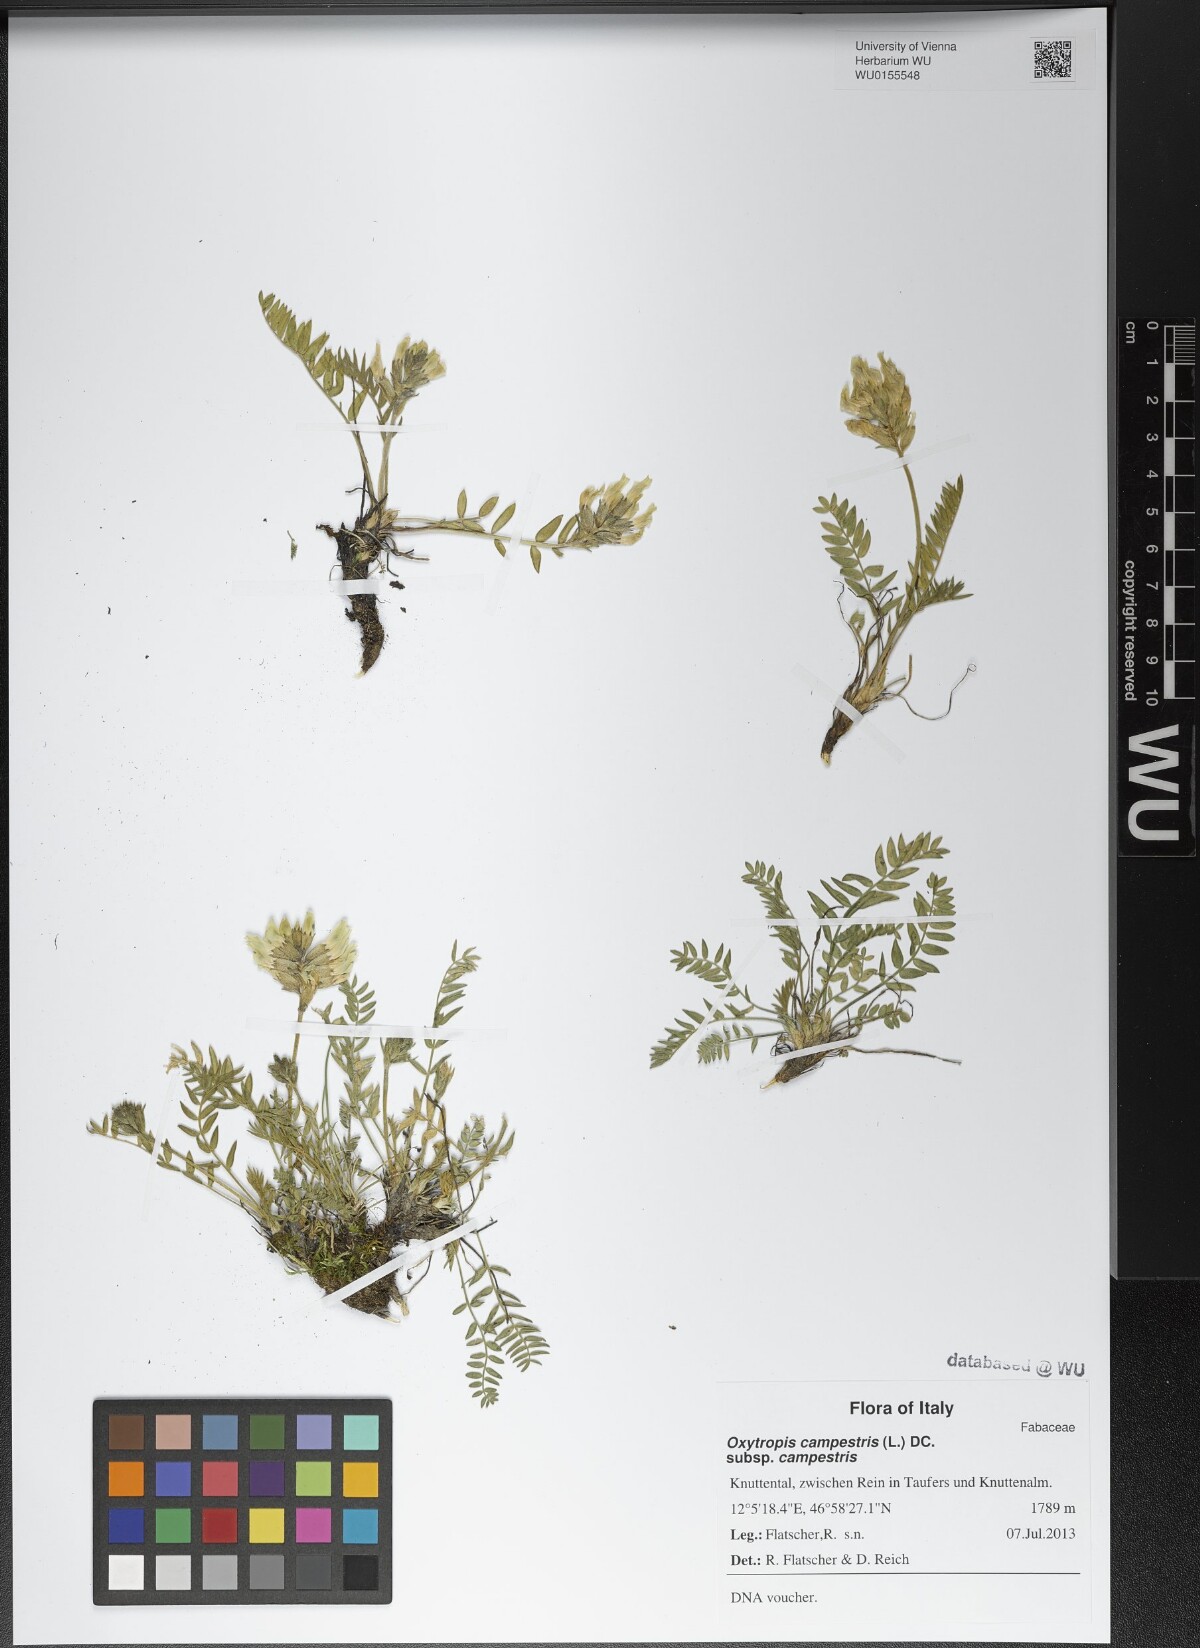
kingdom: Plantae
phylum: Tracheophyta
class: Magnoliopsida
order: Fabales
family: Fabaceae
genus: Oxytropis
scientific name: Oxytropis campestris
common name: Field locoweed
